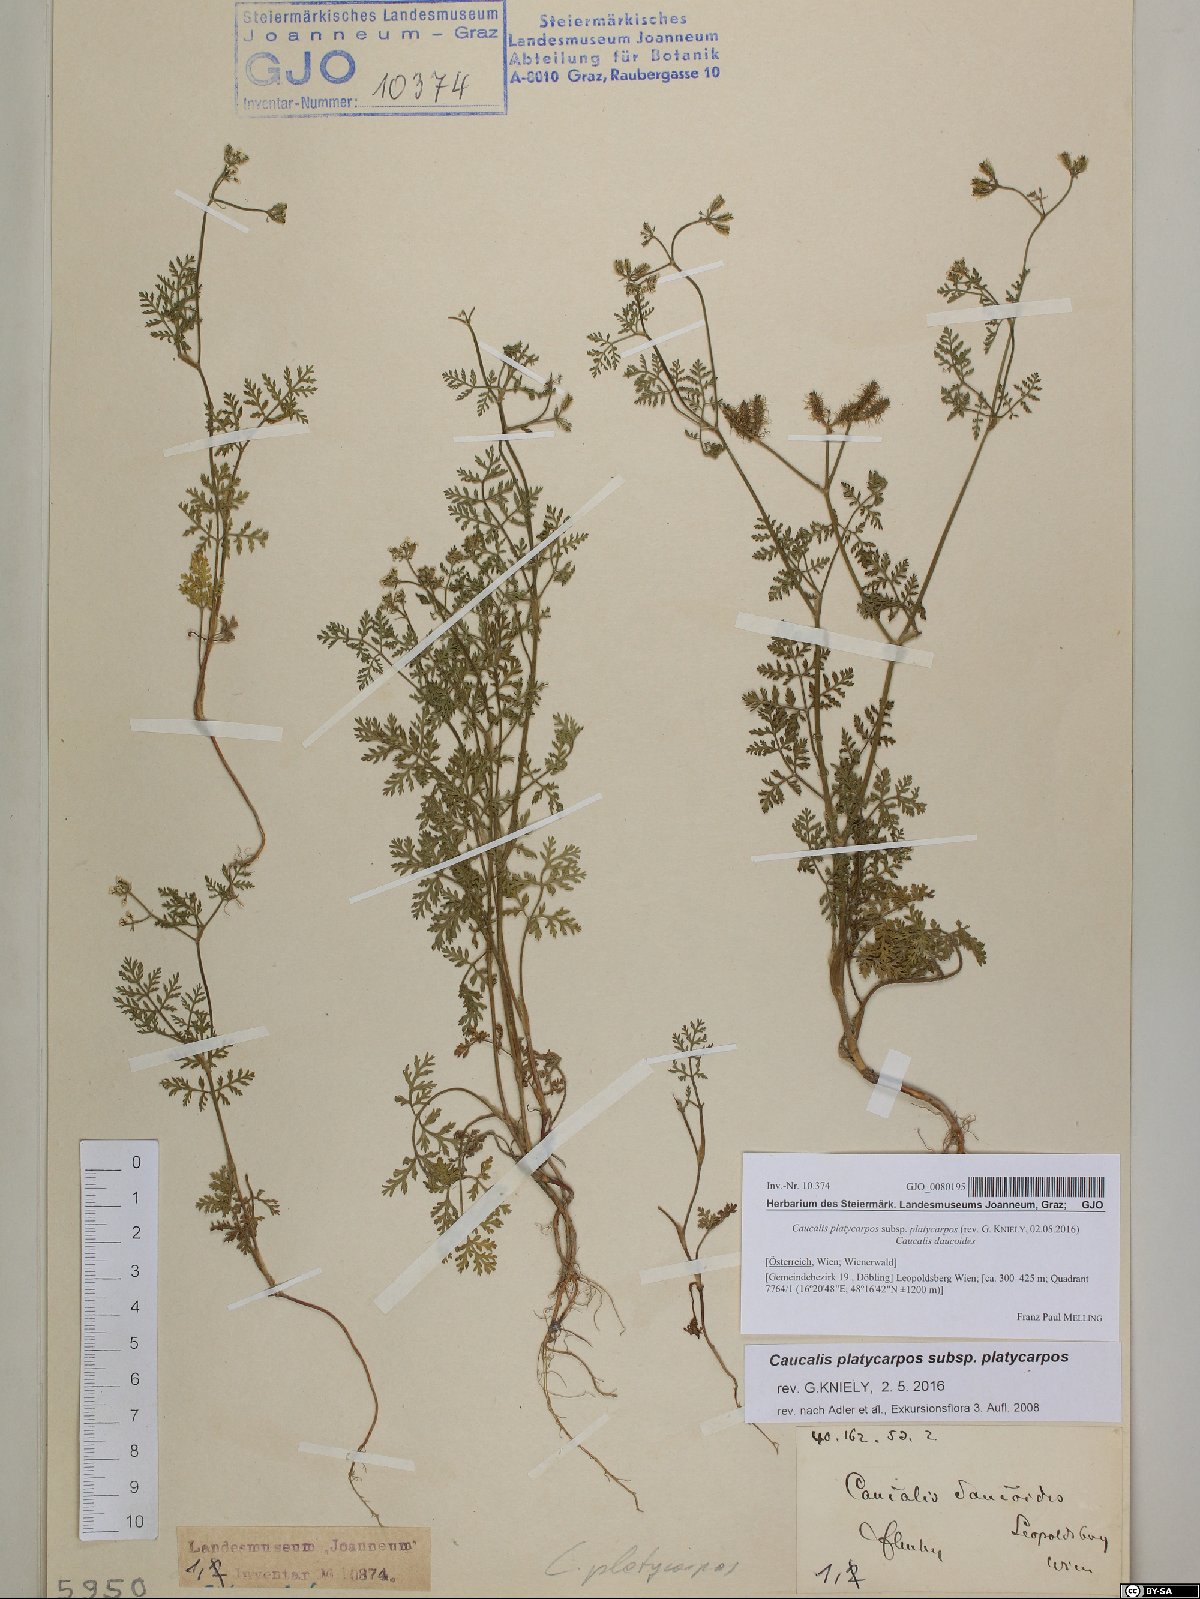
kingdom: Plantae
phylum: Tracheophyta
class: Magnoliopsida
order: Apiales
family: Apiaceae
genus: Caucalis
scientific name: Caucalis platycarpos
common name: Small bur-parsley
